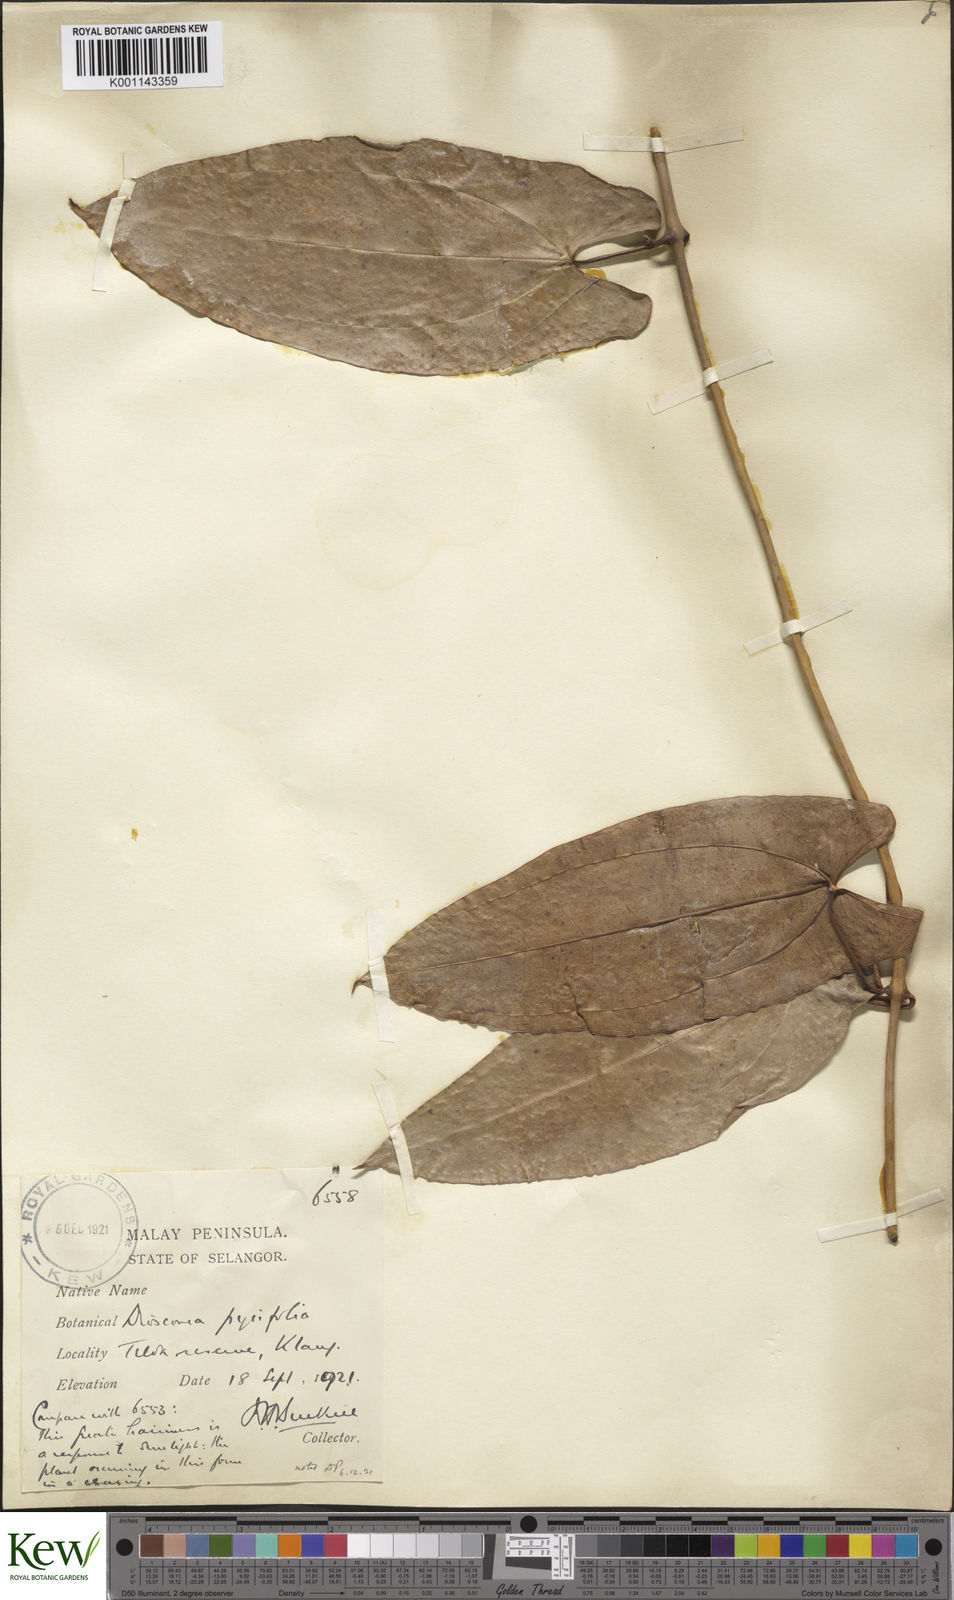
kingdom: Plantae
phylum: Tracheophyta
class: Liliopsida
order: Dioscoreales
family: Dioscoreaceae
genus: Dioscorea
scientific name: Dioscorea pyrifolia
